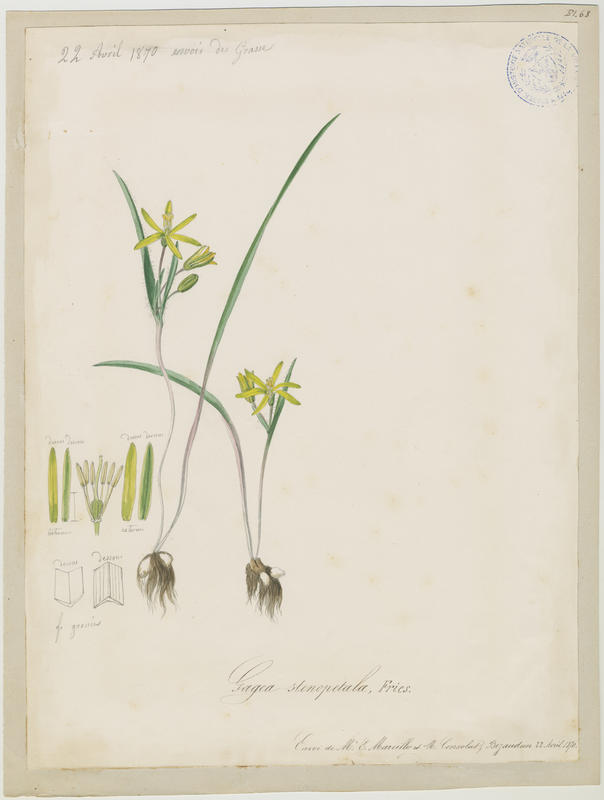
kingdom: Plantae
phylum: Tracheophyta
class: Liliopsida
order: Liliales
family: Liliaceae
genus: Gagea
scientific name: Gagea pratensis
